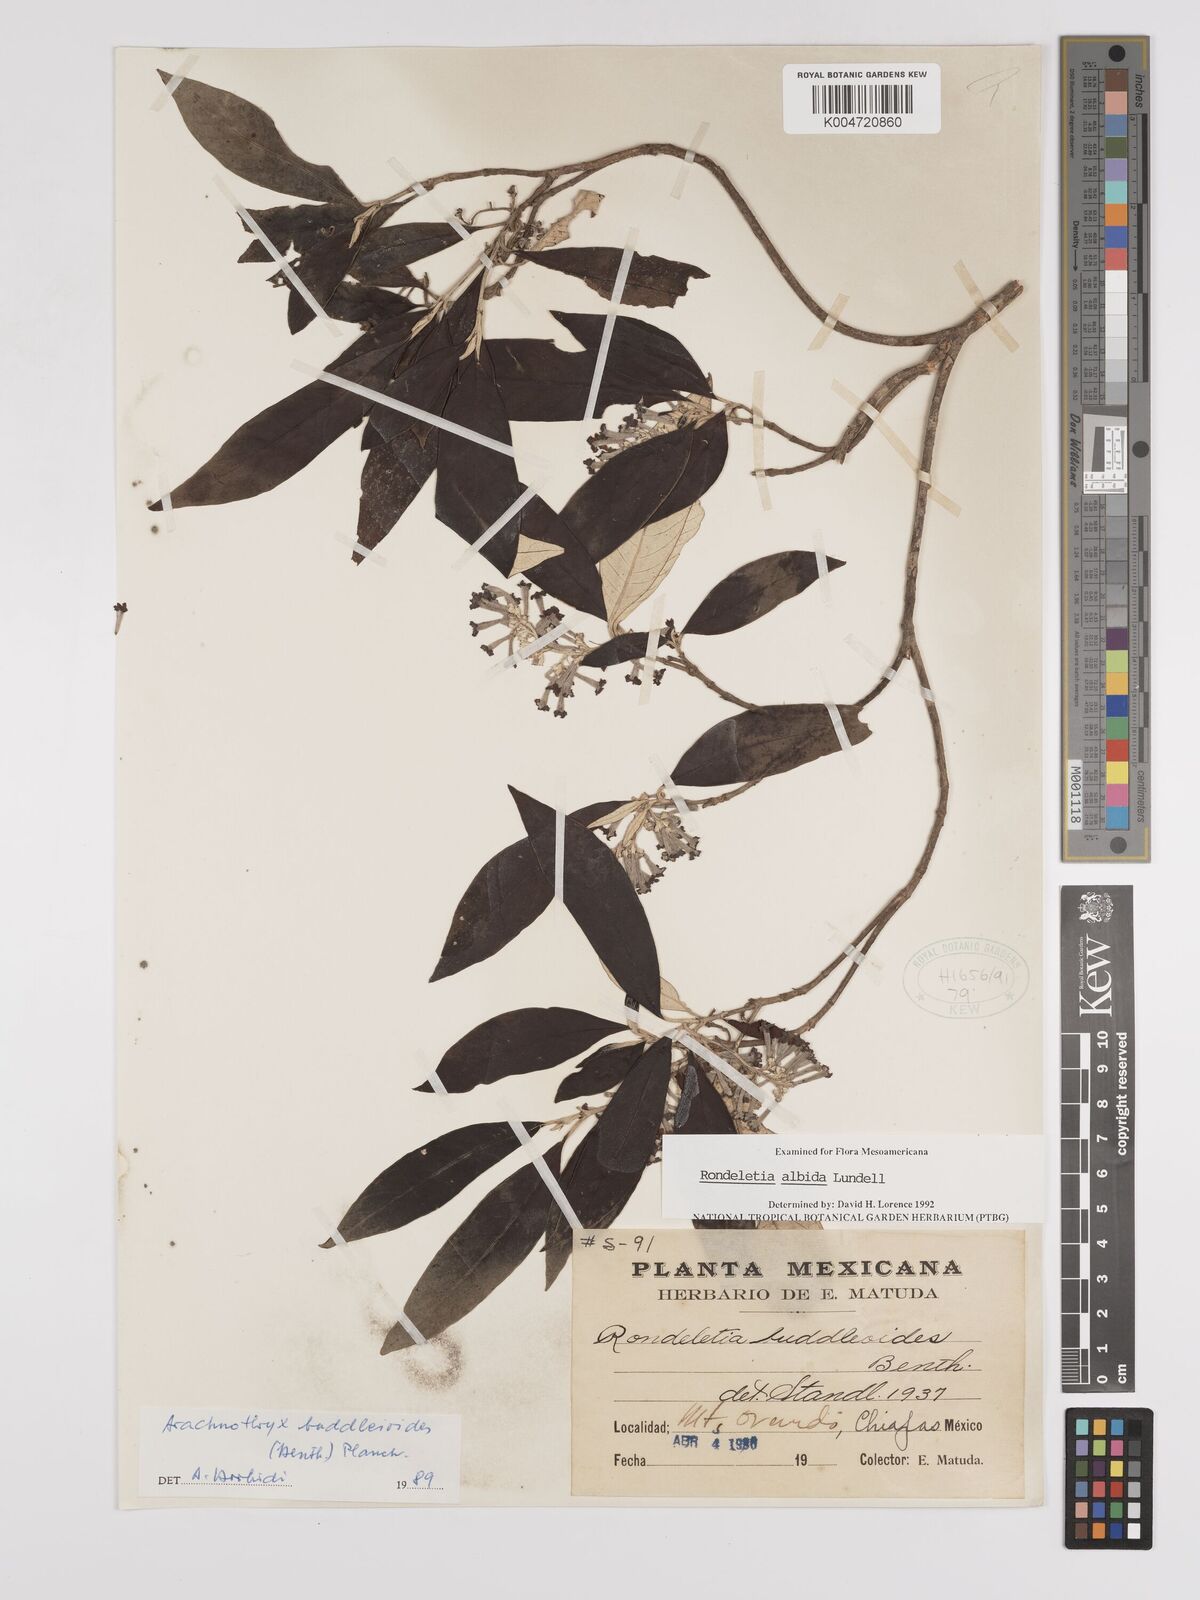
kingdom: Plantae
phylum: Tracheophyta
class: Magnoliopsida
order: Gentianales
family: Rubiaceae
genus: Arachnothryx
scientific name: Arachnothryx laniflora
